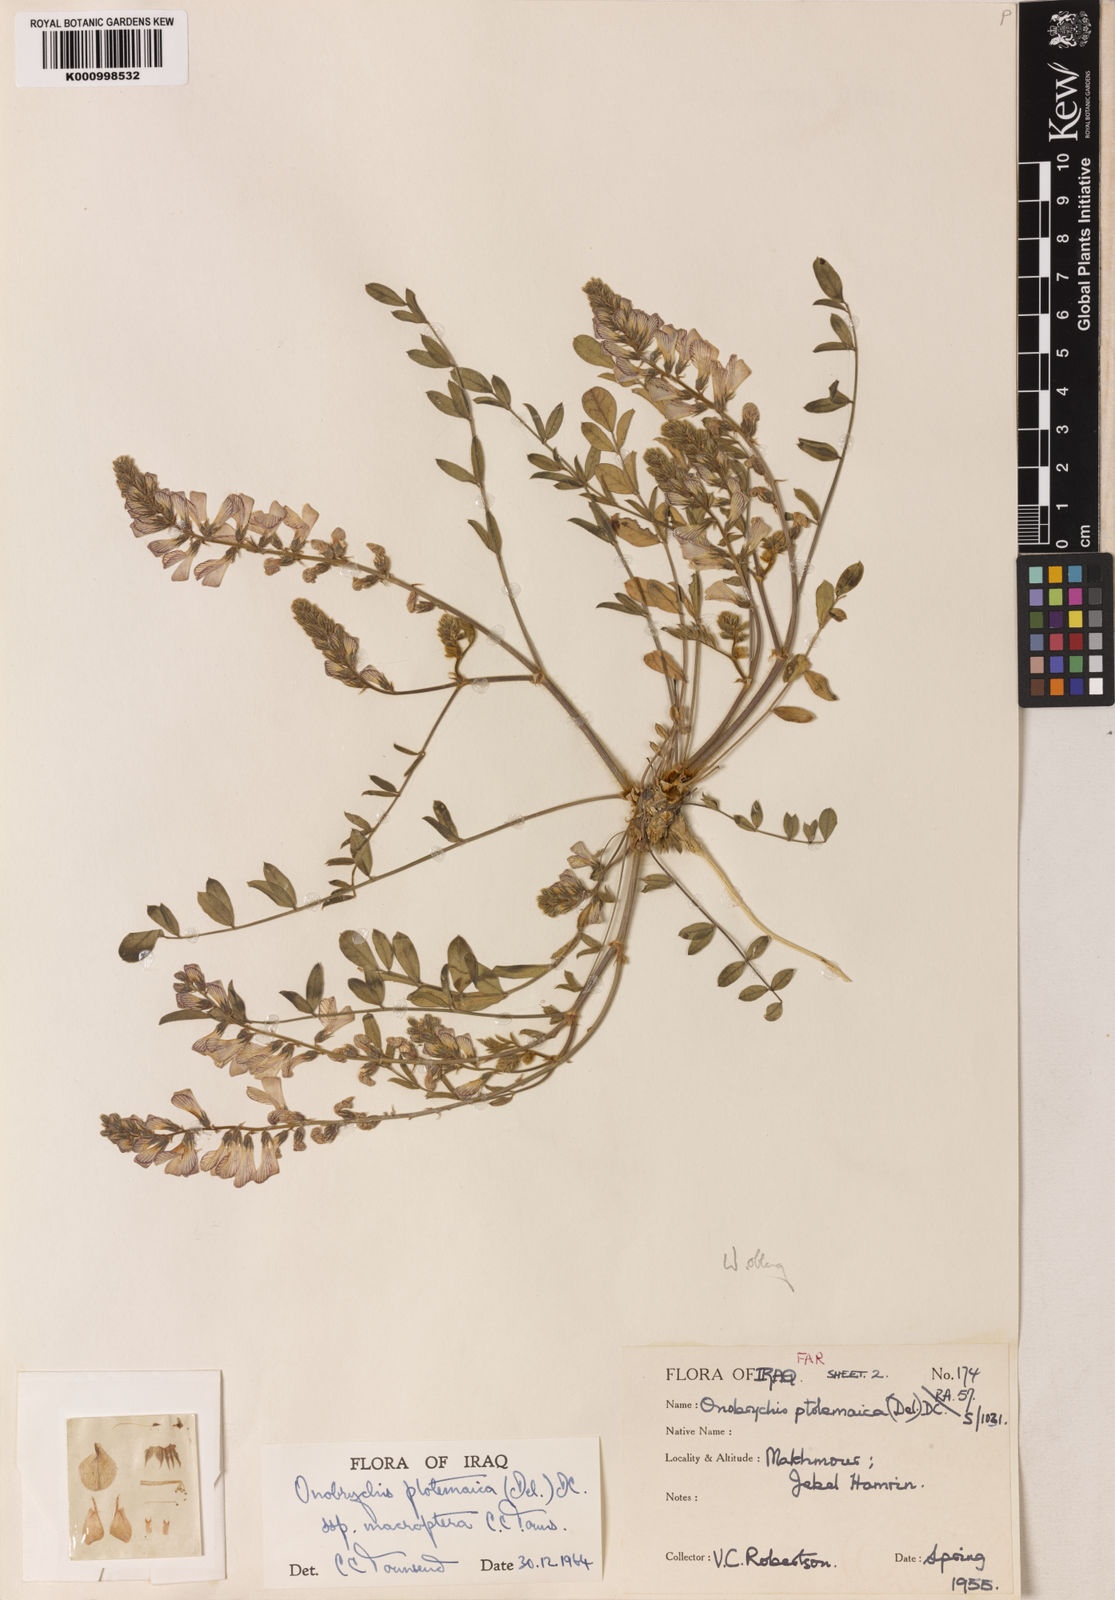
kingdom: Plantae
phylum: Tracheophyta
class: Magnoliopsida
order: Fabales
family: Fabaceae
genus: Onobrychis
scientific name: Onobrychis ptolemaica
